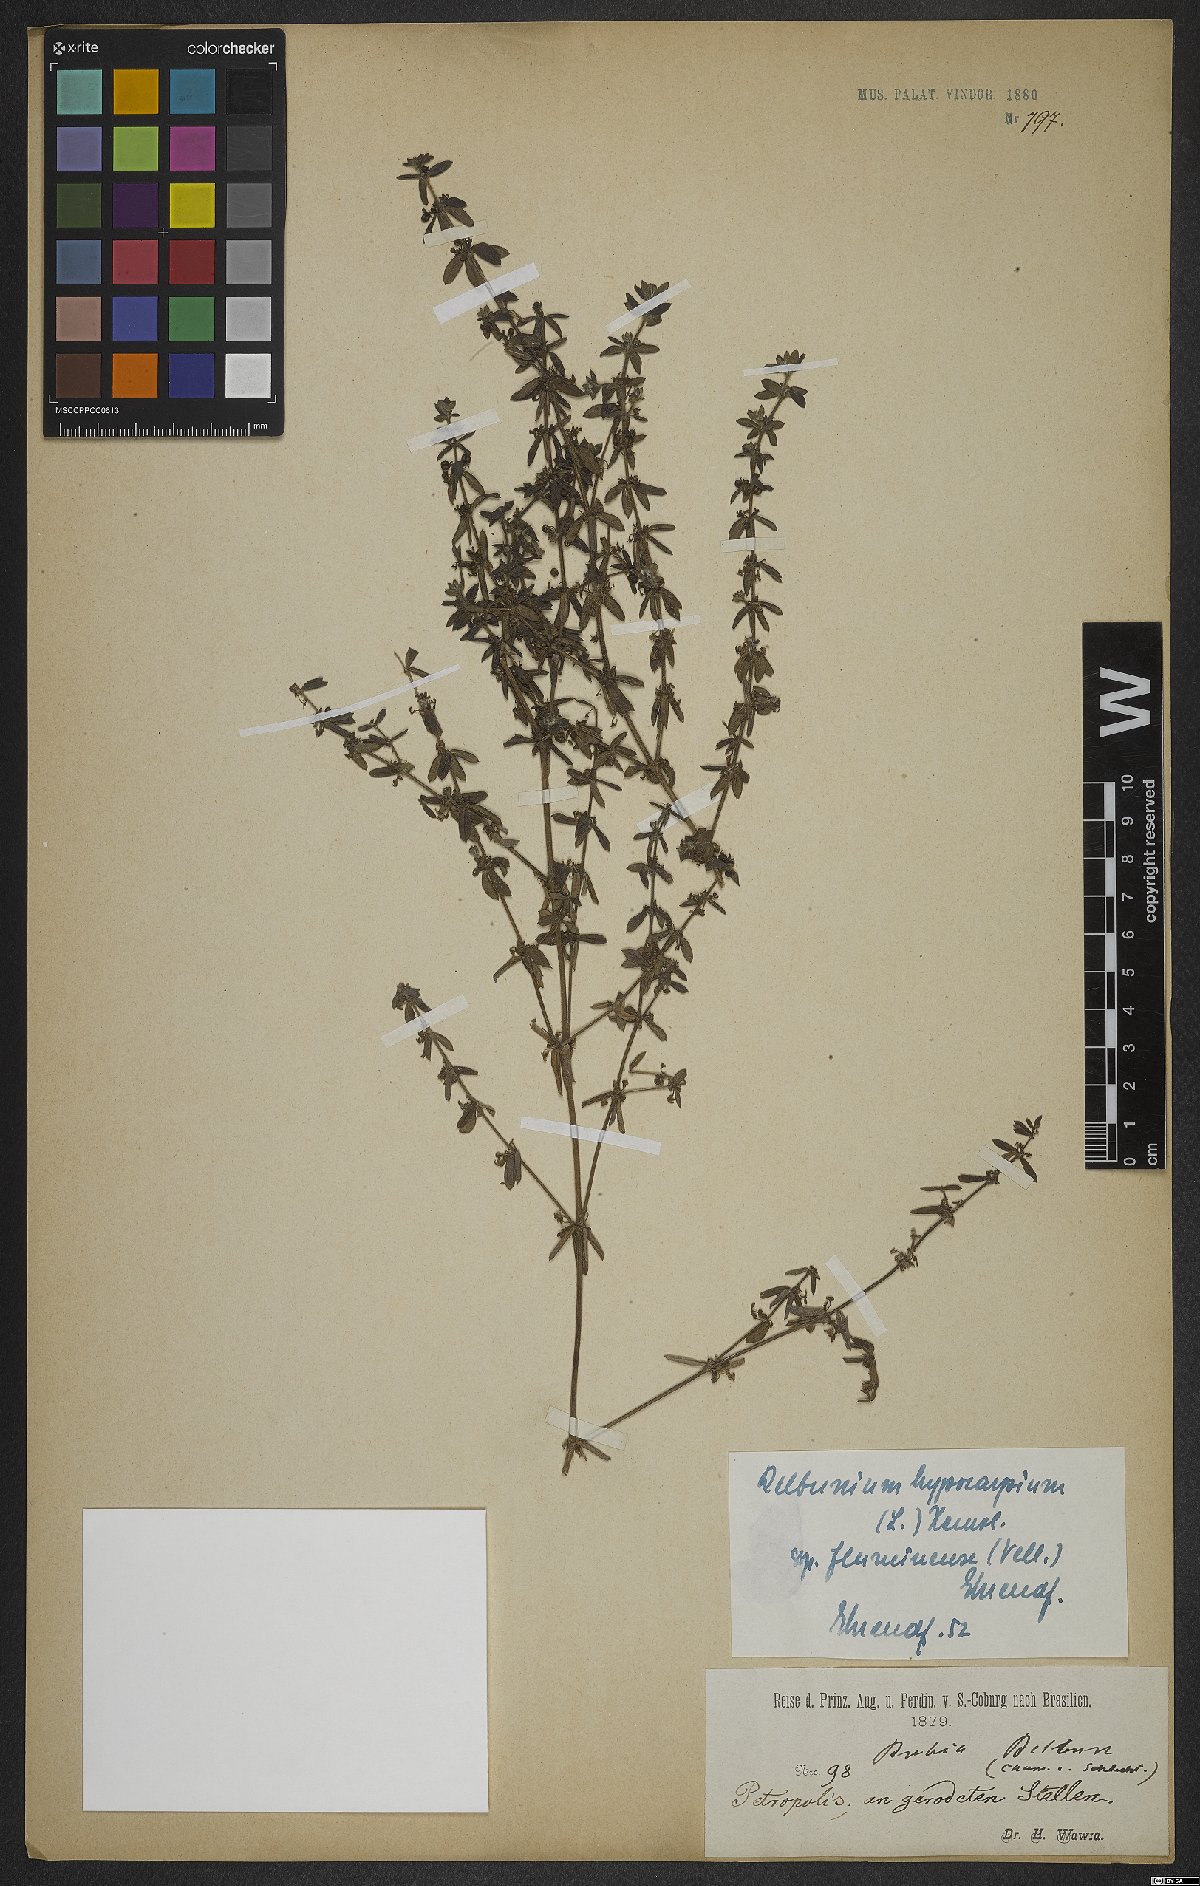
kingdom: Plantae
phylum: Tracheophyta
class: Magnoliopsida
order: Gentianales
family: Rubiaceae
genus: Galium
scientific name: Galium hypocarpium
